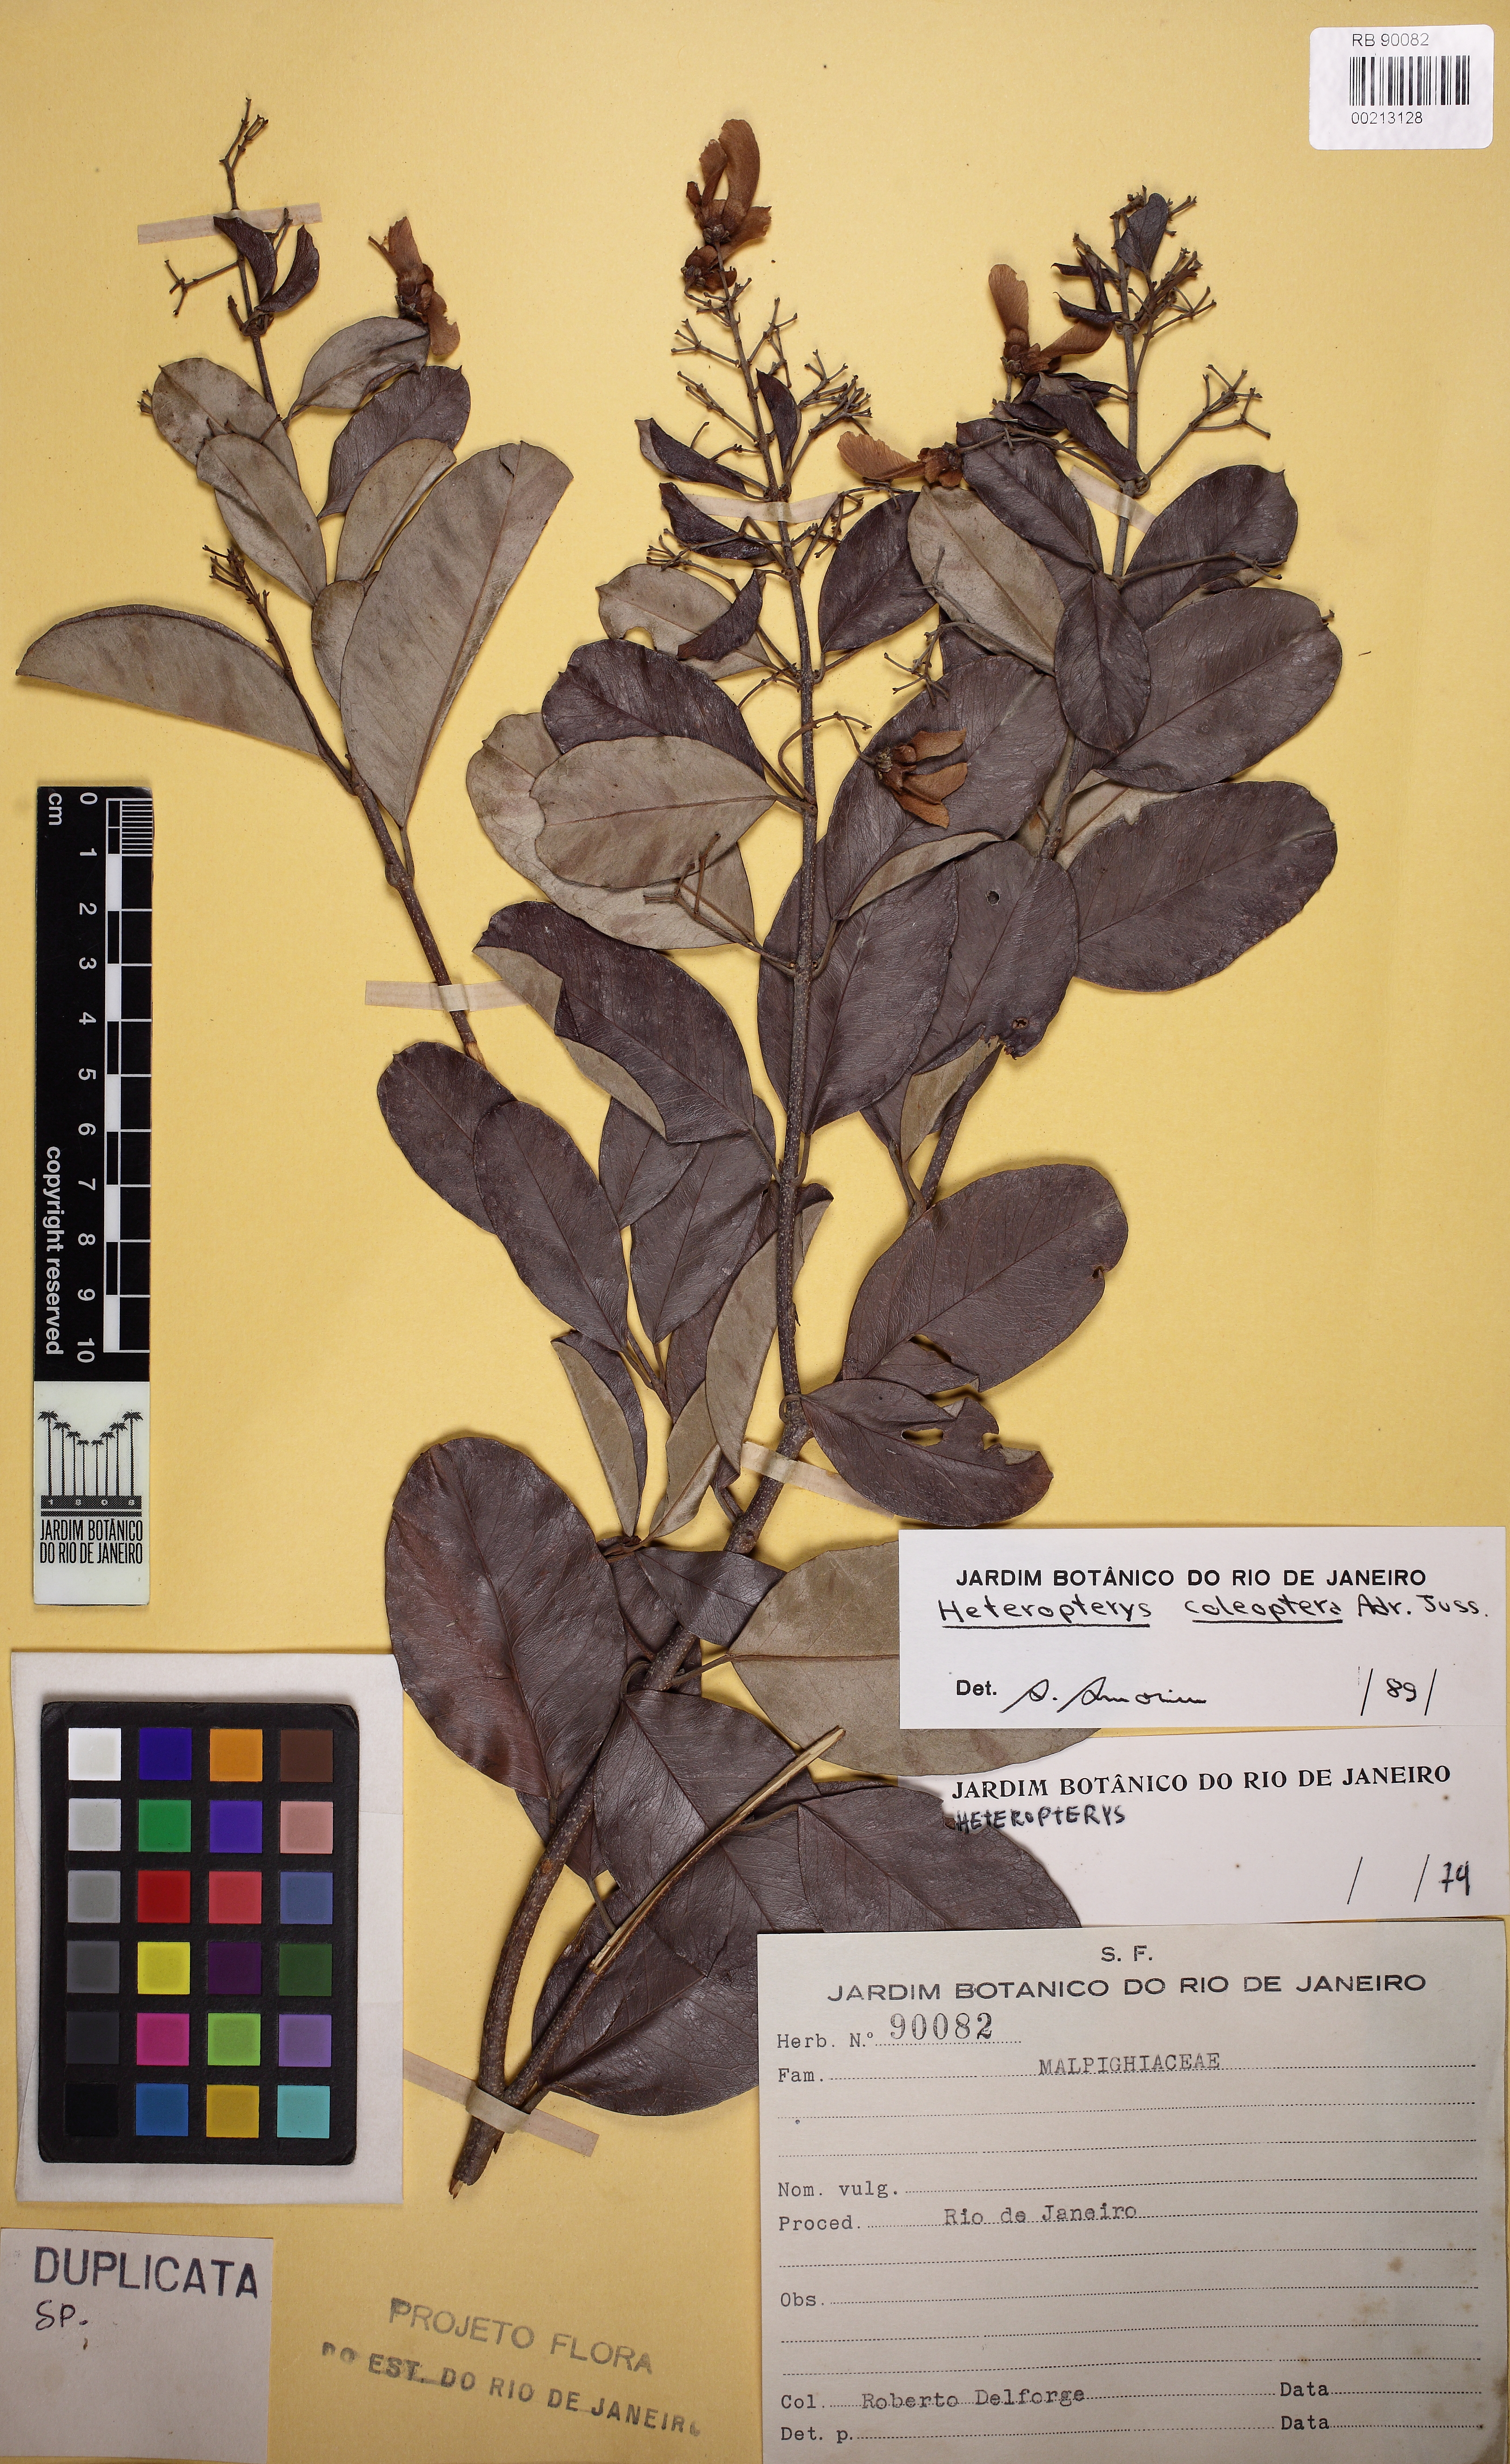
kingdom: Plantae
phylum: Tracheophyta
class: Magnoliopsida
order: Malpighiales
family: Malpighiaceae
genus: Heteropterys
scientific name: Heteropterys coleoptera
